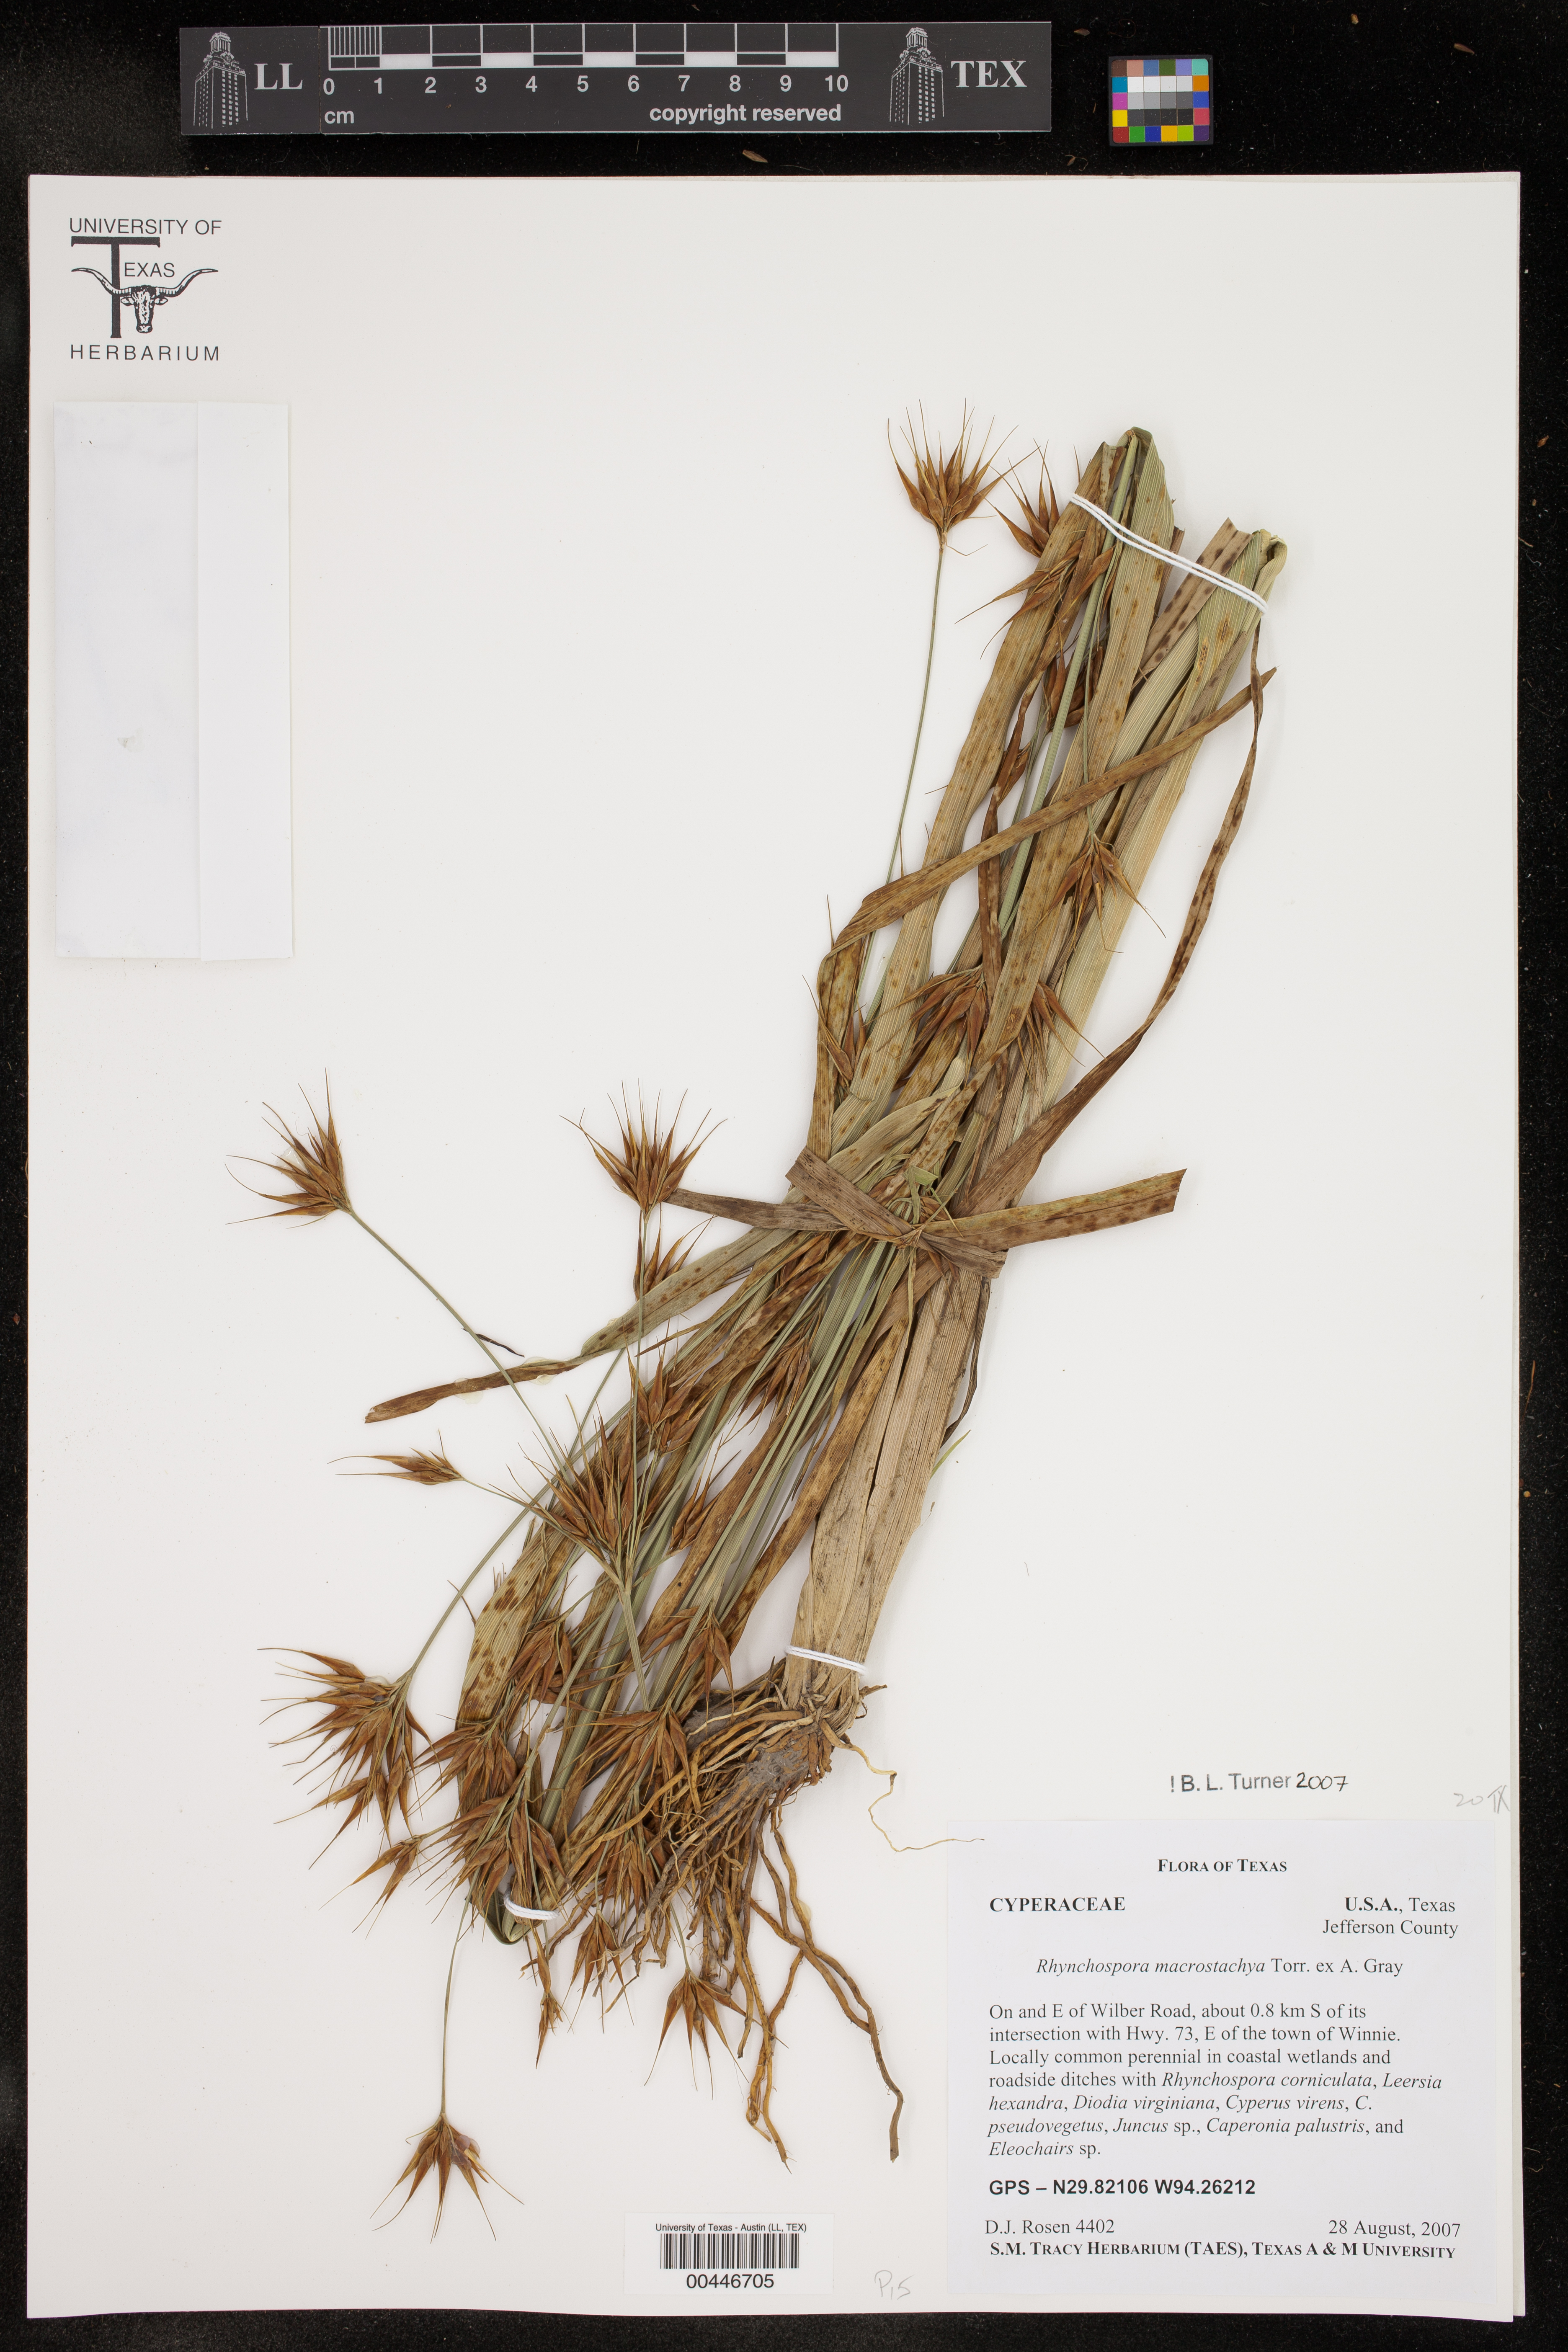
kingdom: Plantae
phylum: Tracheophyta
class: Liliopsida
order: Poales
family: Cyperaceae
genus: Rhynchospora
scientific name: Rhynchospora macrostachya
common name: Tall beakrush
